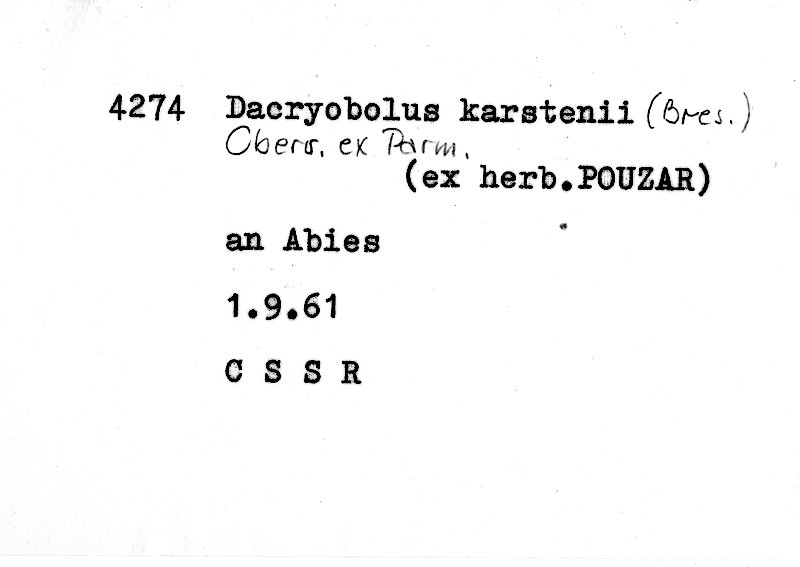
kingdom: Fungi
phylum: Basidiomycota
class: Agaricomycetes
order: Polyporales
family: Dacryobolaceae
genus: Dacryobolus
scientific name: Dacryobolus karstenii
